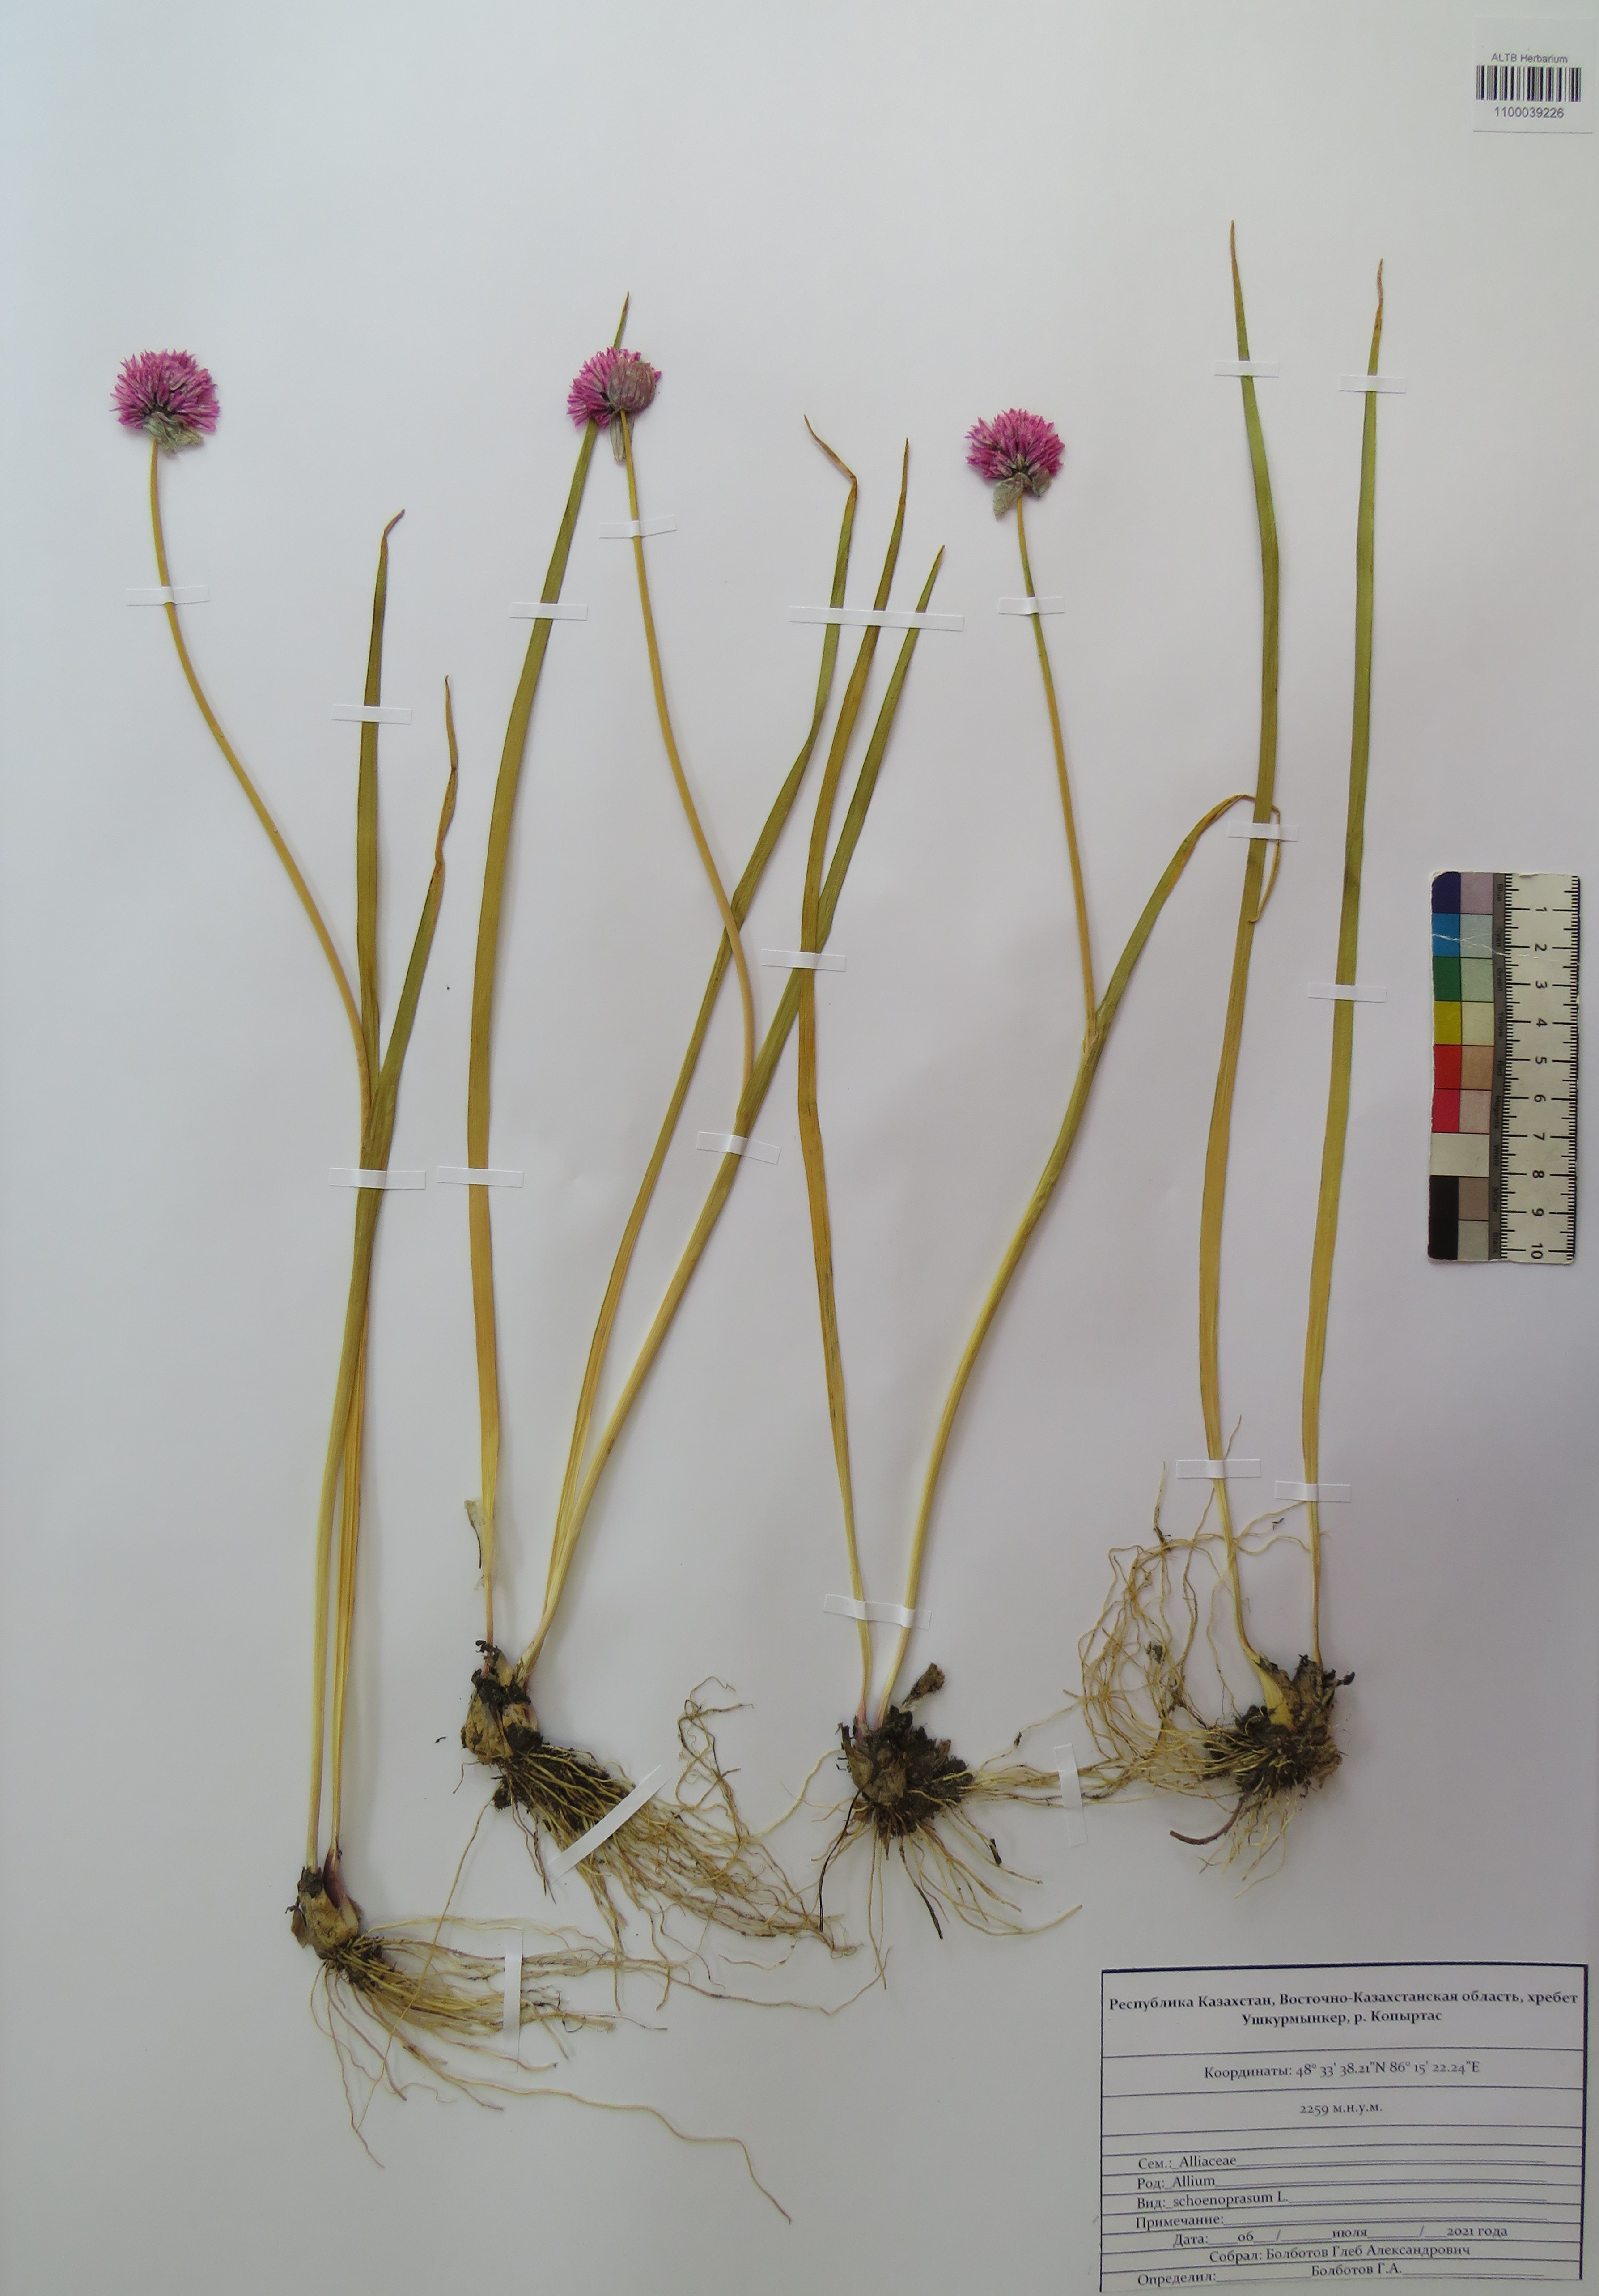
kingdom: Plantae
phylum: Tracheophyta
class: Liliopsida
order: Asparagales
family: Amaryllidaceae
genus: Allium
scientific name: Allium schoenoprasum
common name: Chives
